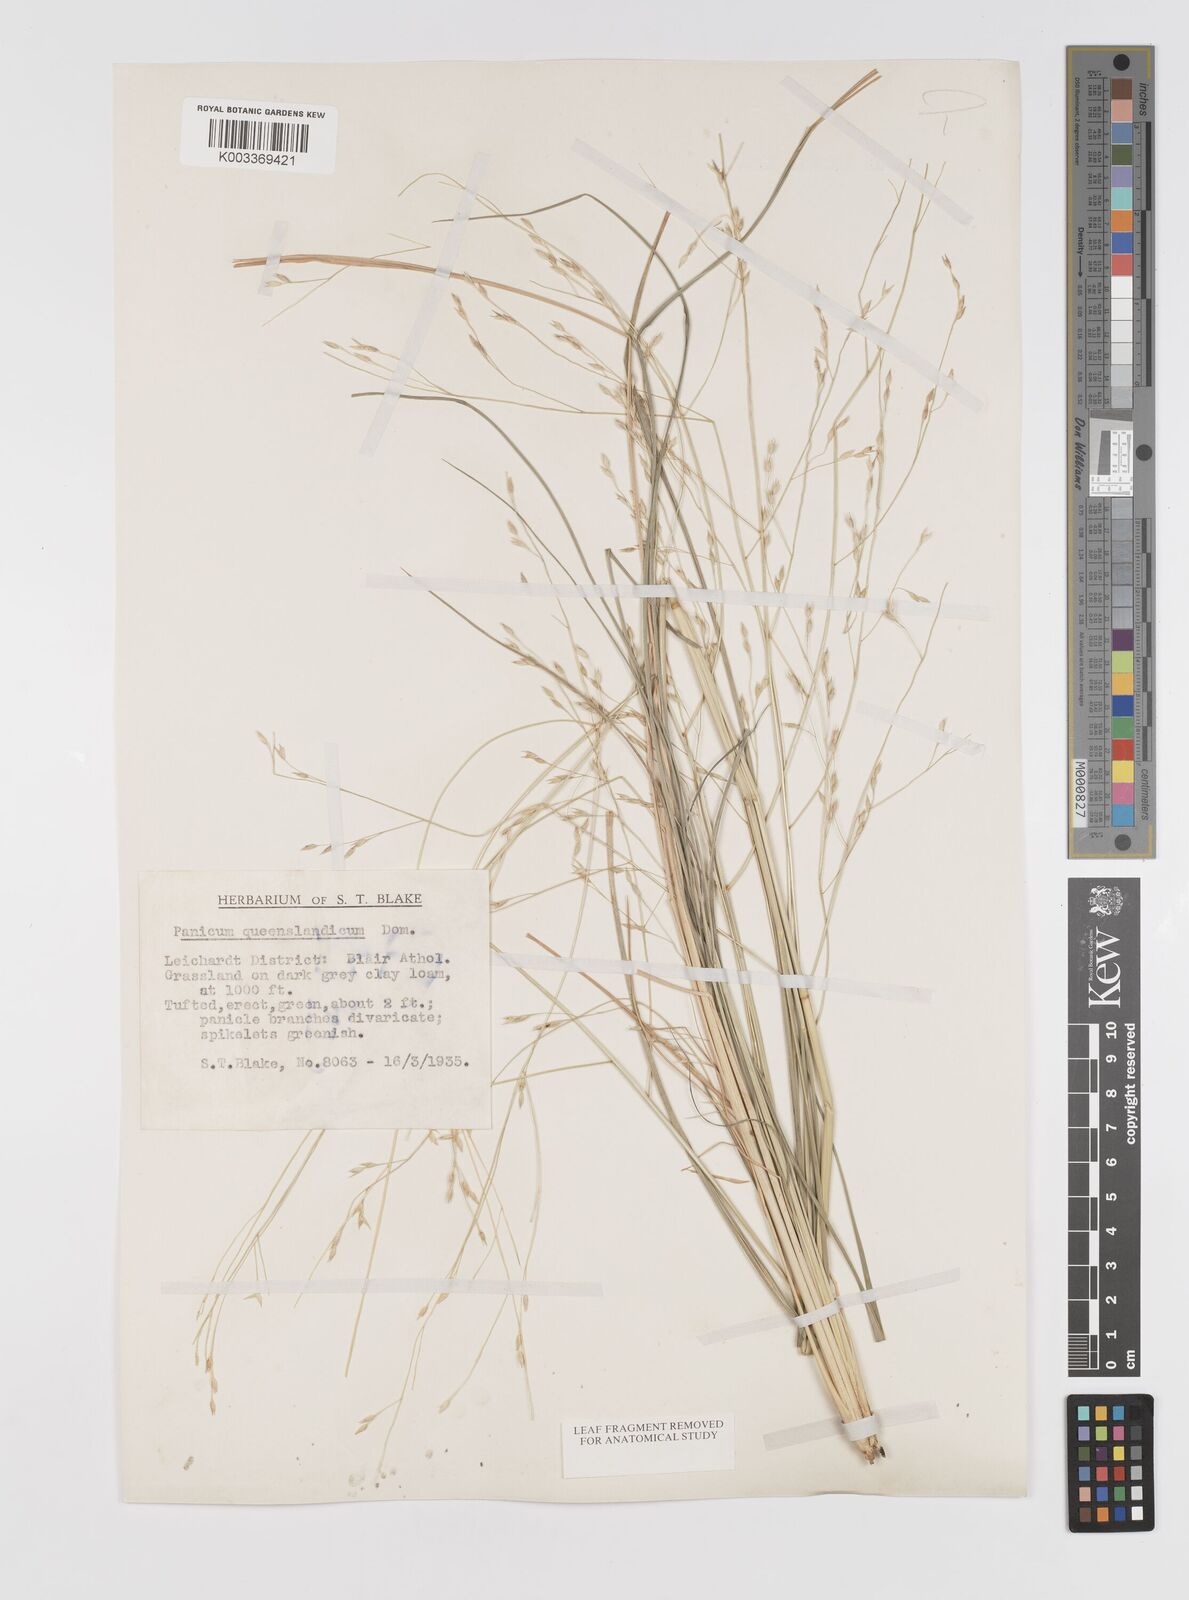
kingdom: Plantae
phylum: Tracheophyta
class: Liliopsida
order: Poales
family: Poaceae
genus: Panicum
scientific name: Panicum queenslandicum
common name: Yabila grass
